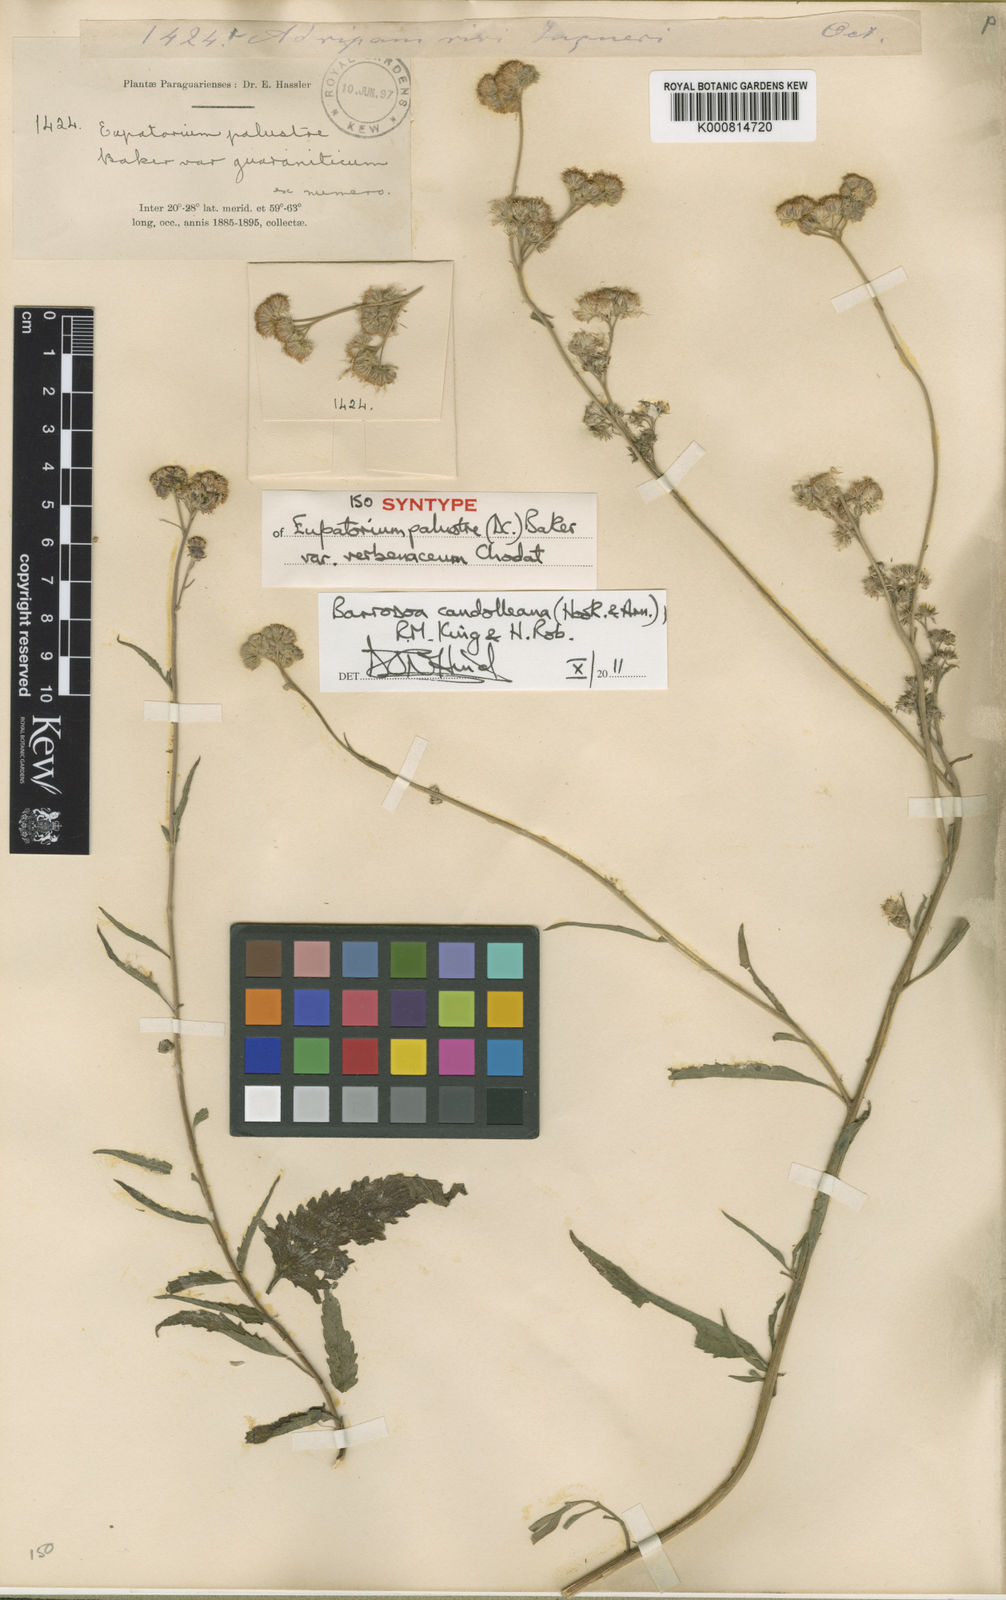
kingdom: Plantae
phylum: Tracheophyta
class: Magnoliopsida
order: Asterales
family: Asteraceae
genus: Barrosoa
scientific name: Barrosoa candolleana
